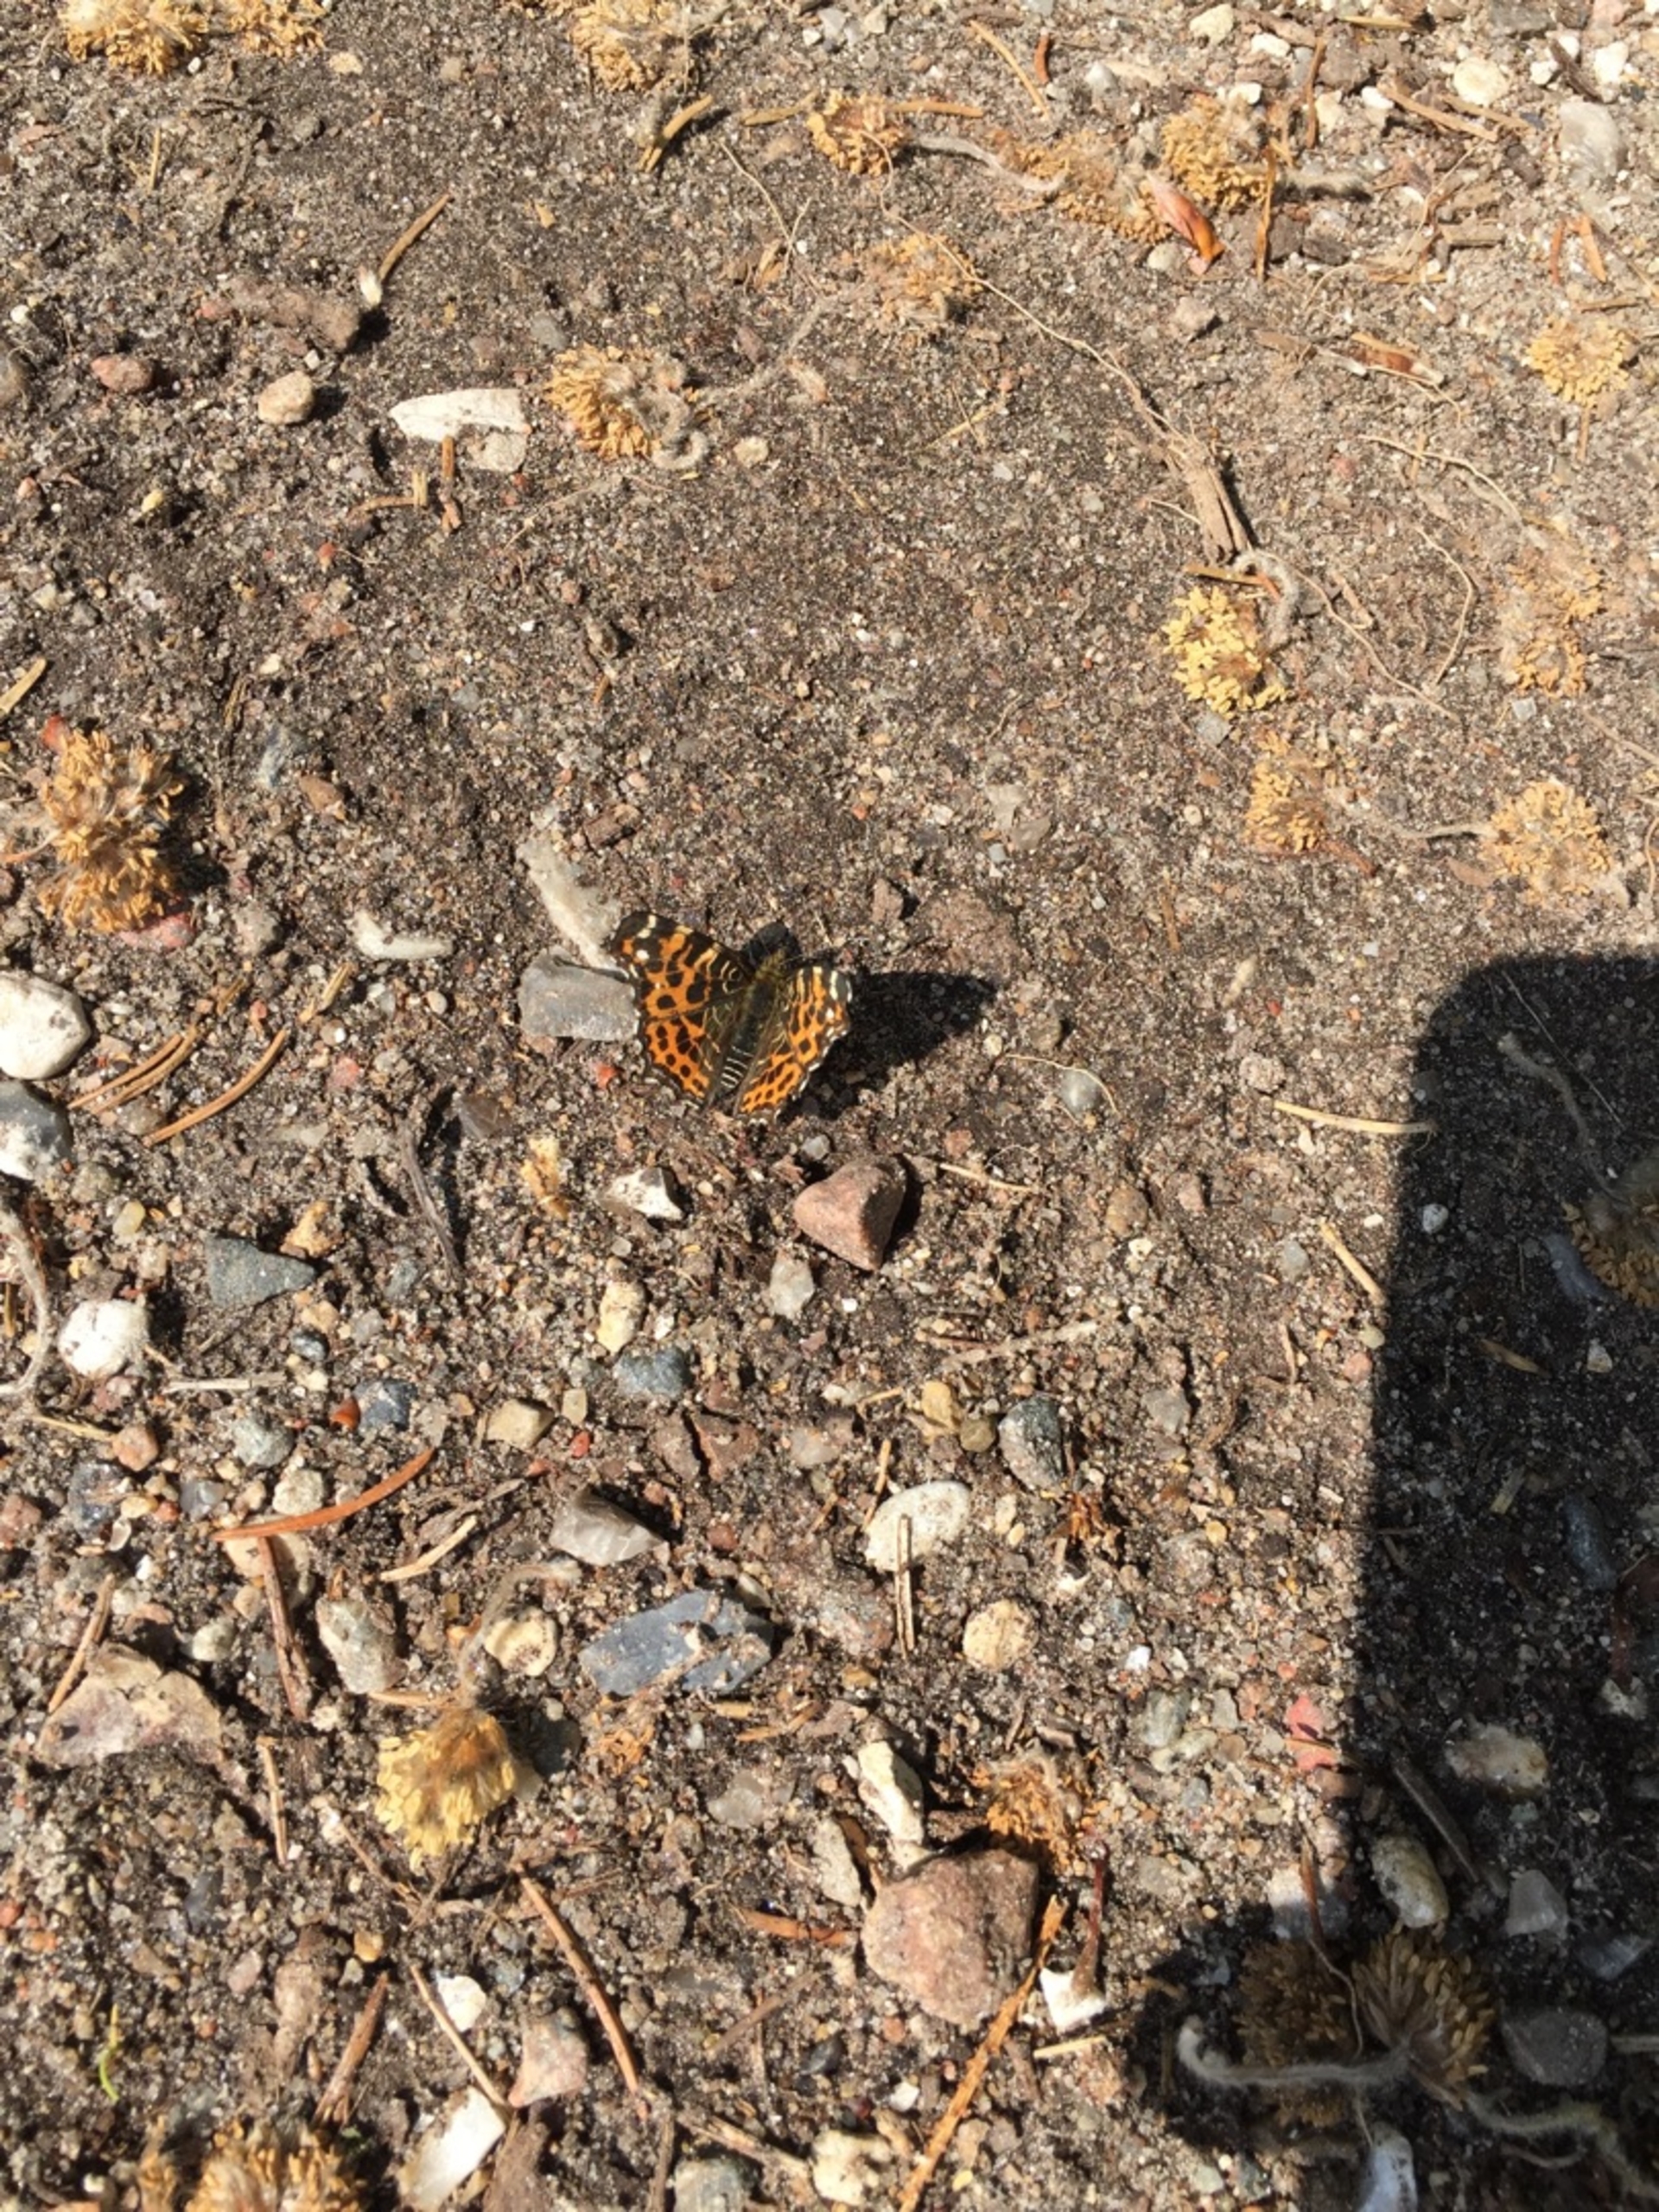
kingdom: Animalia
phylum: Arthropoda
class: Insecta
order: Lepidoptera
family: Nymphalidae
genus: Araschnia
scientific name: Araschnia levana
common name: Nældesommerfugl
